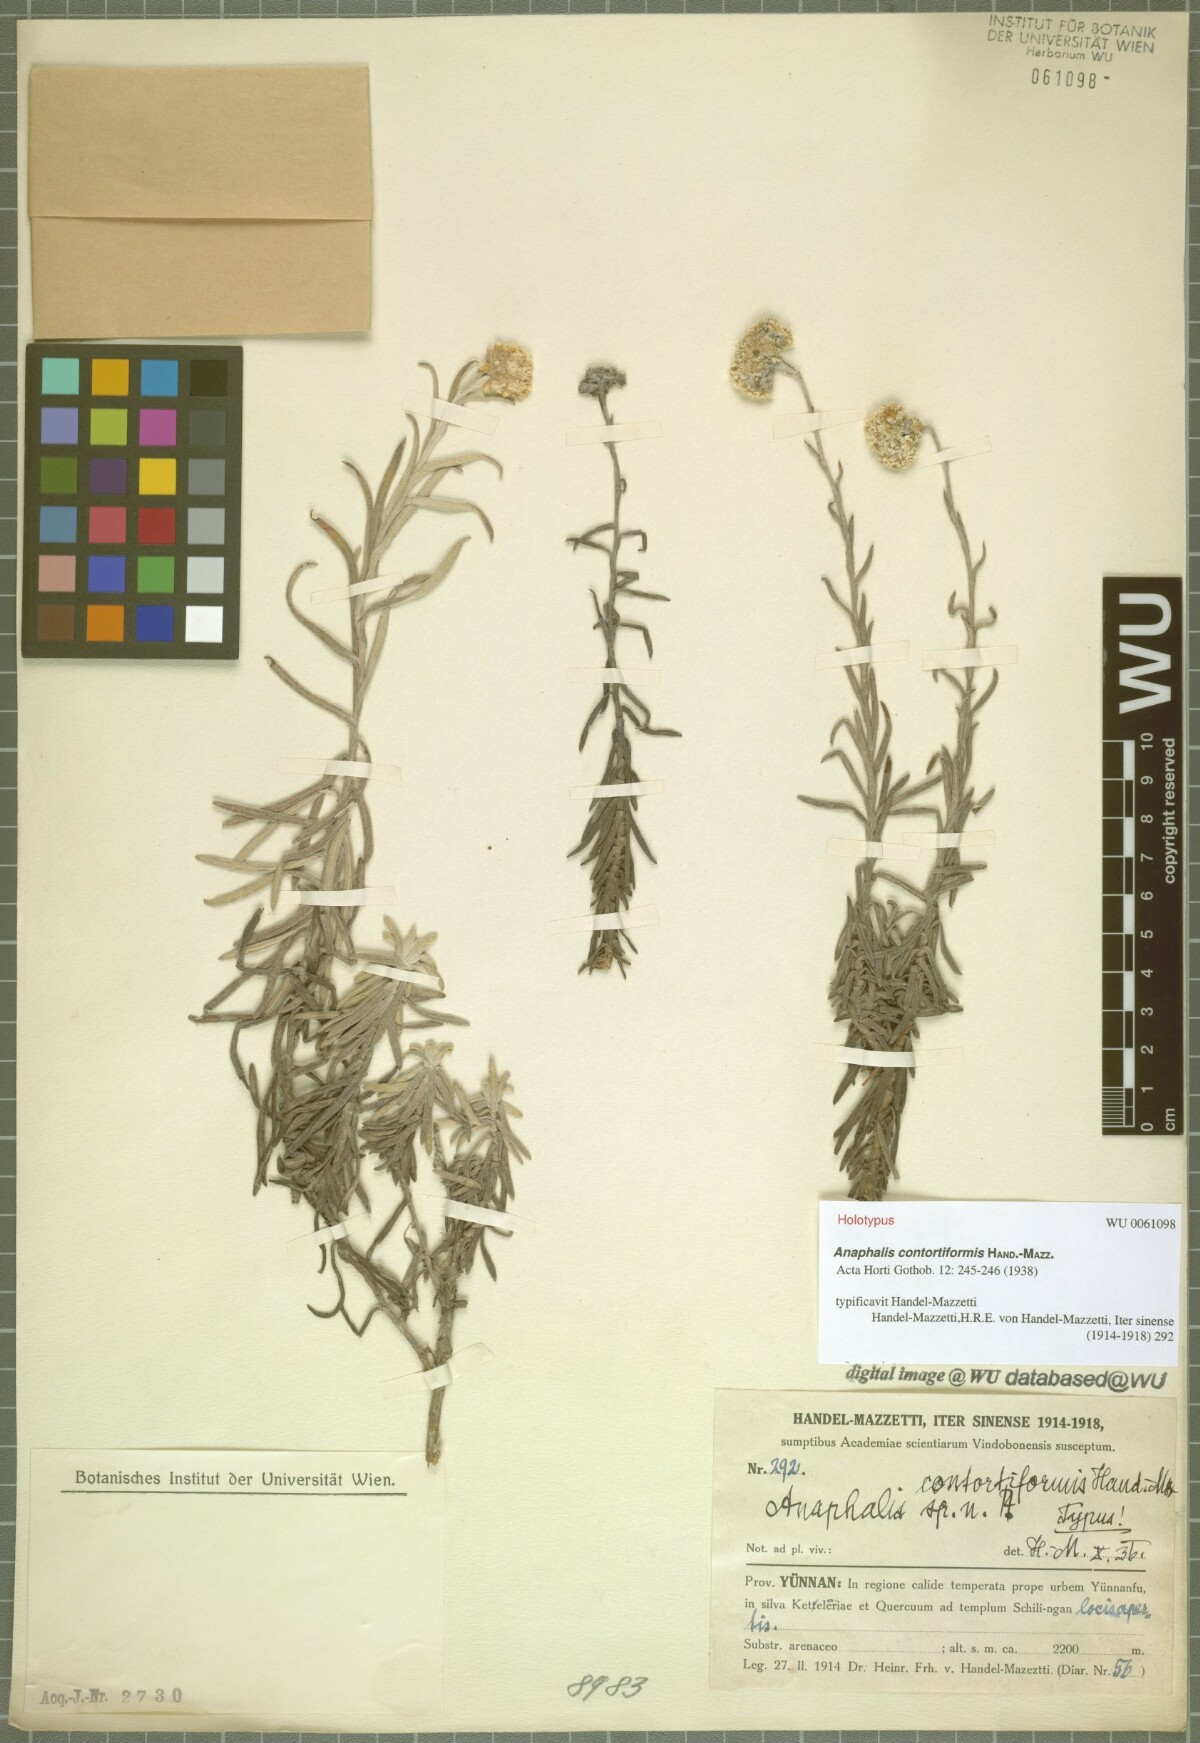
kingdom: Plantae
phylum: Tracheophyta
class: Magnoliopsida
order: Asterales
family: Asteraceae
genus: Anaphalis
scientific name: Anaphalis contortiformis
